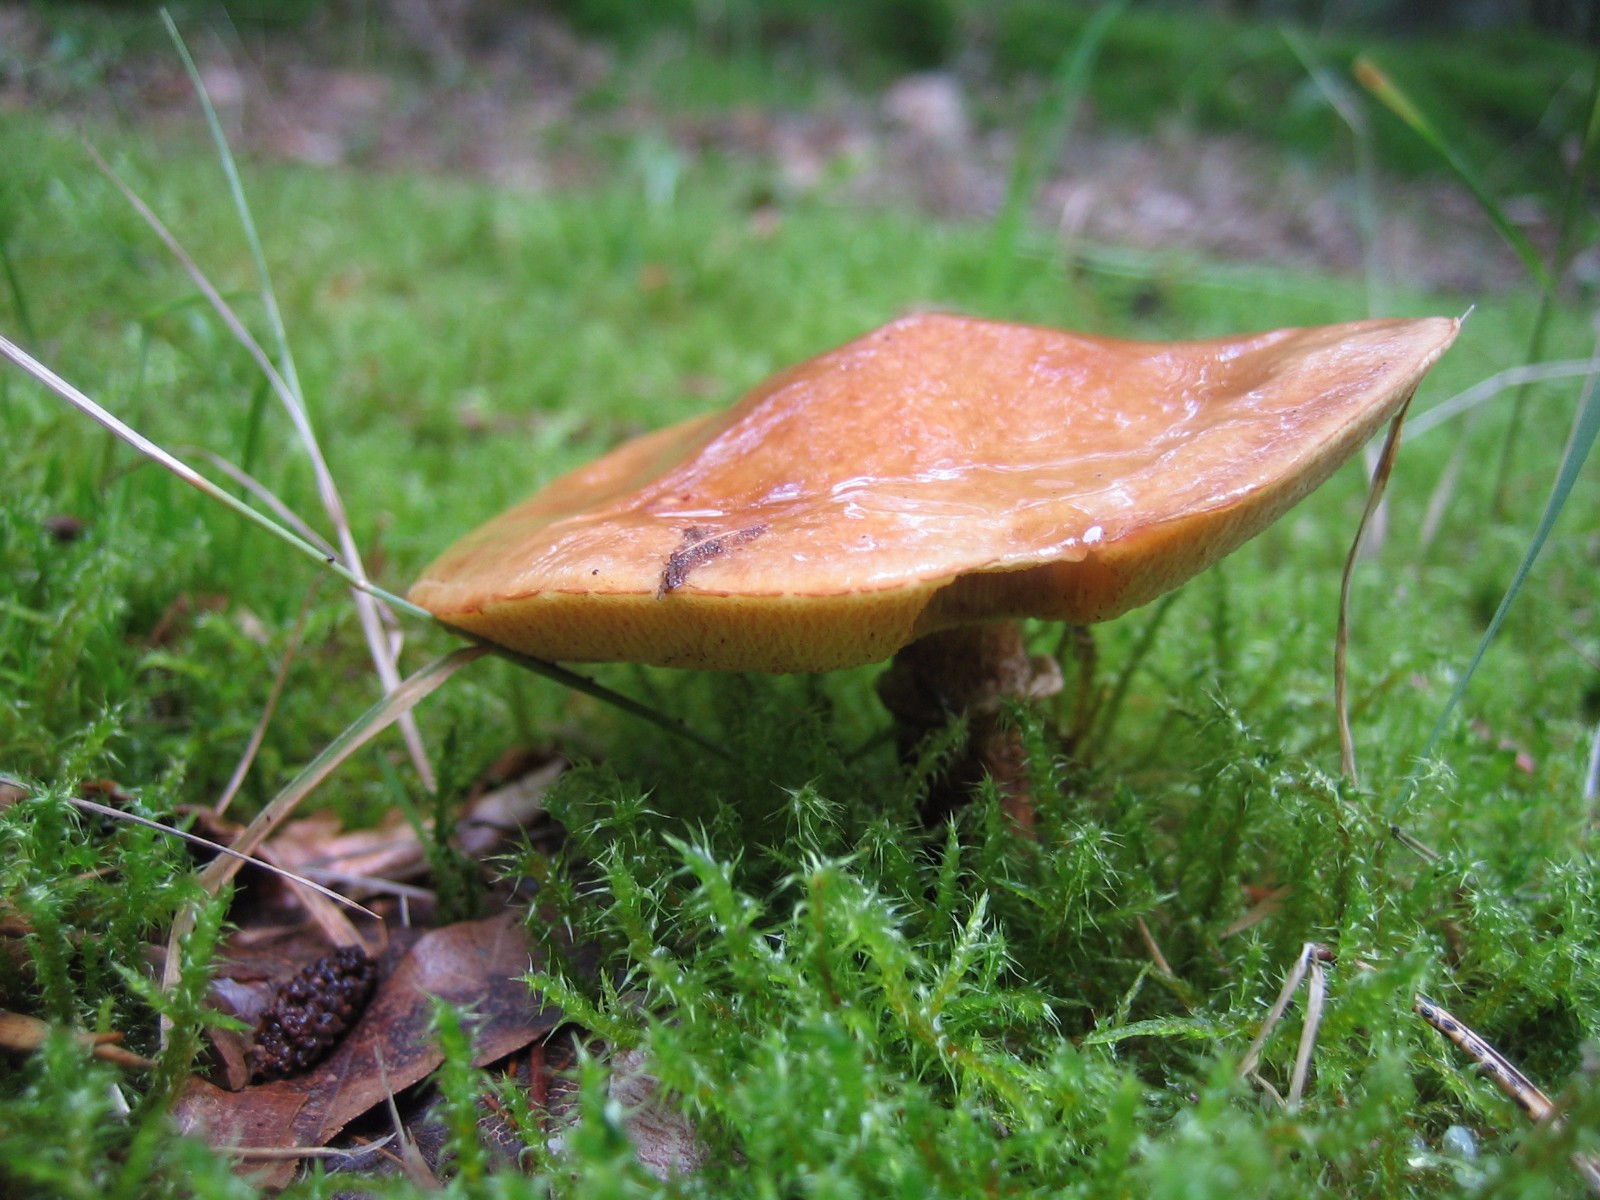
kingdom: Fungi
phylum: Basidiomycota
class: Agaricomycetes
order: Boletales
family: Suillaceae
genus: Suillus
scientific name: Suillus grevillei
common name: lærke-slimrørhat
